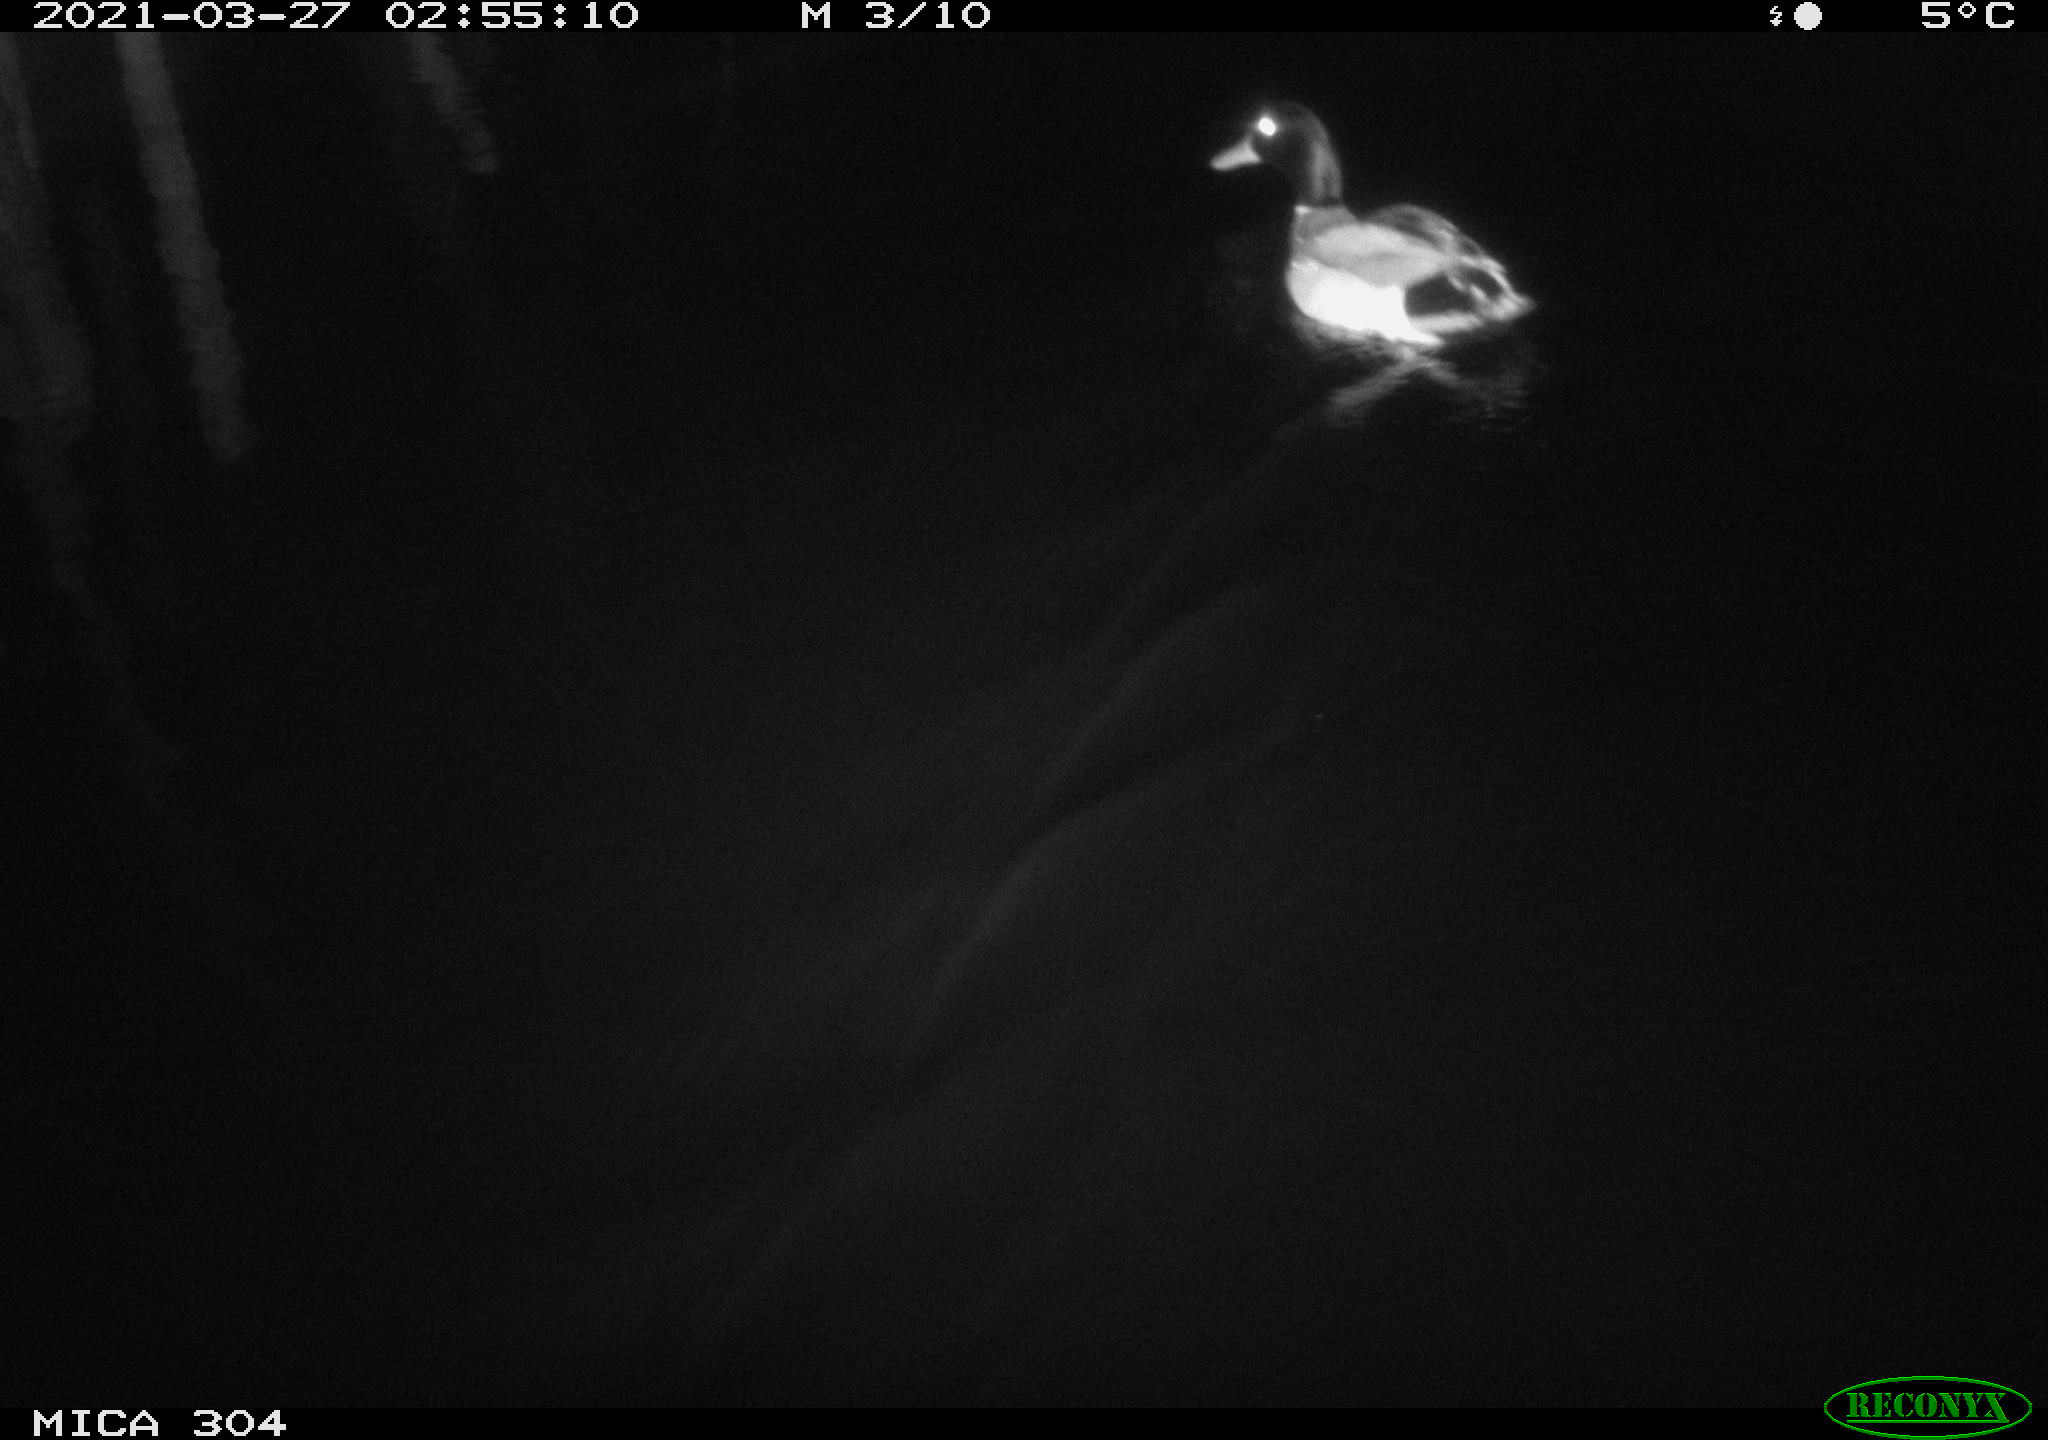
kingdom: Animalia
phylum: Chordata
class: Aves
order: Anseriformes
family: Anatidae
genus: Anas
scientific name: Anas platyrhynchos
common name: Mallard
